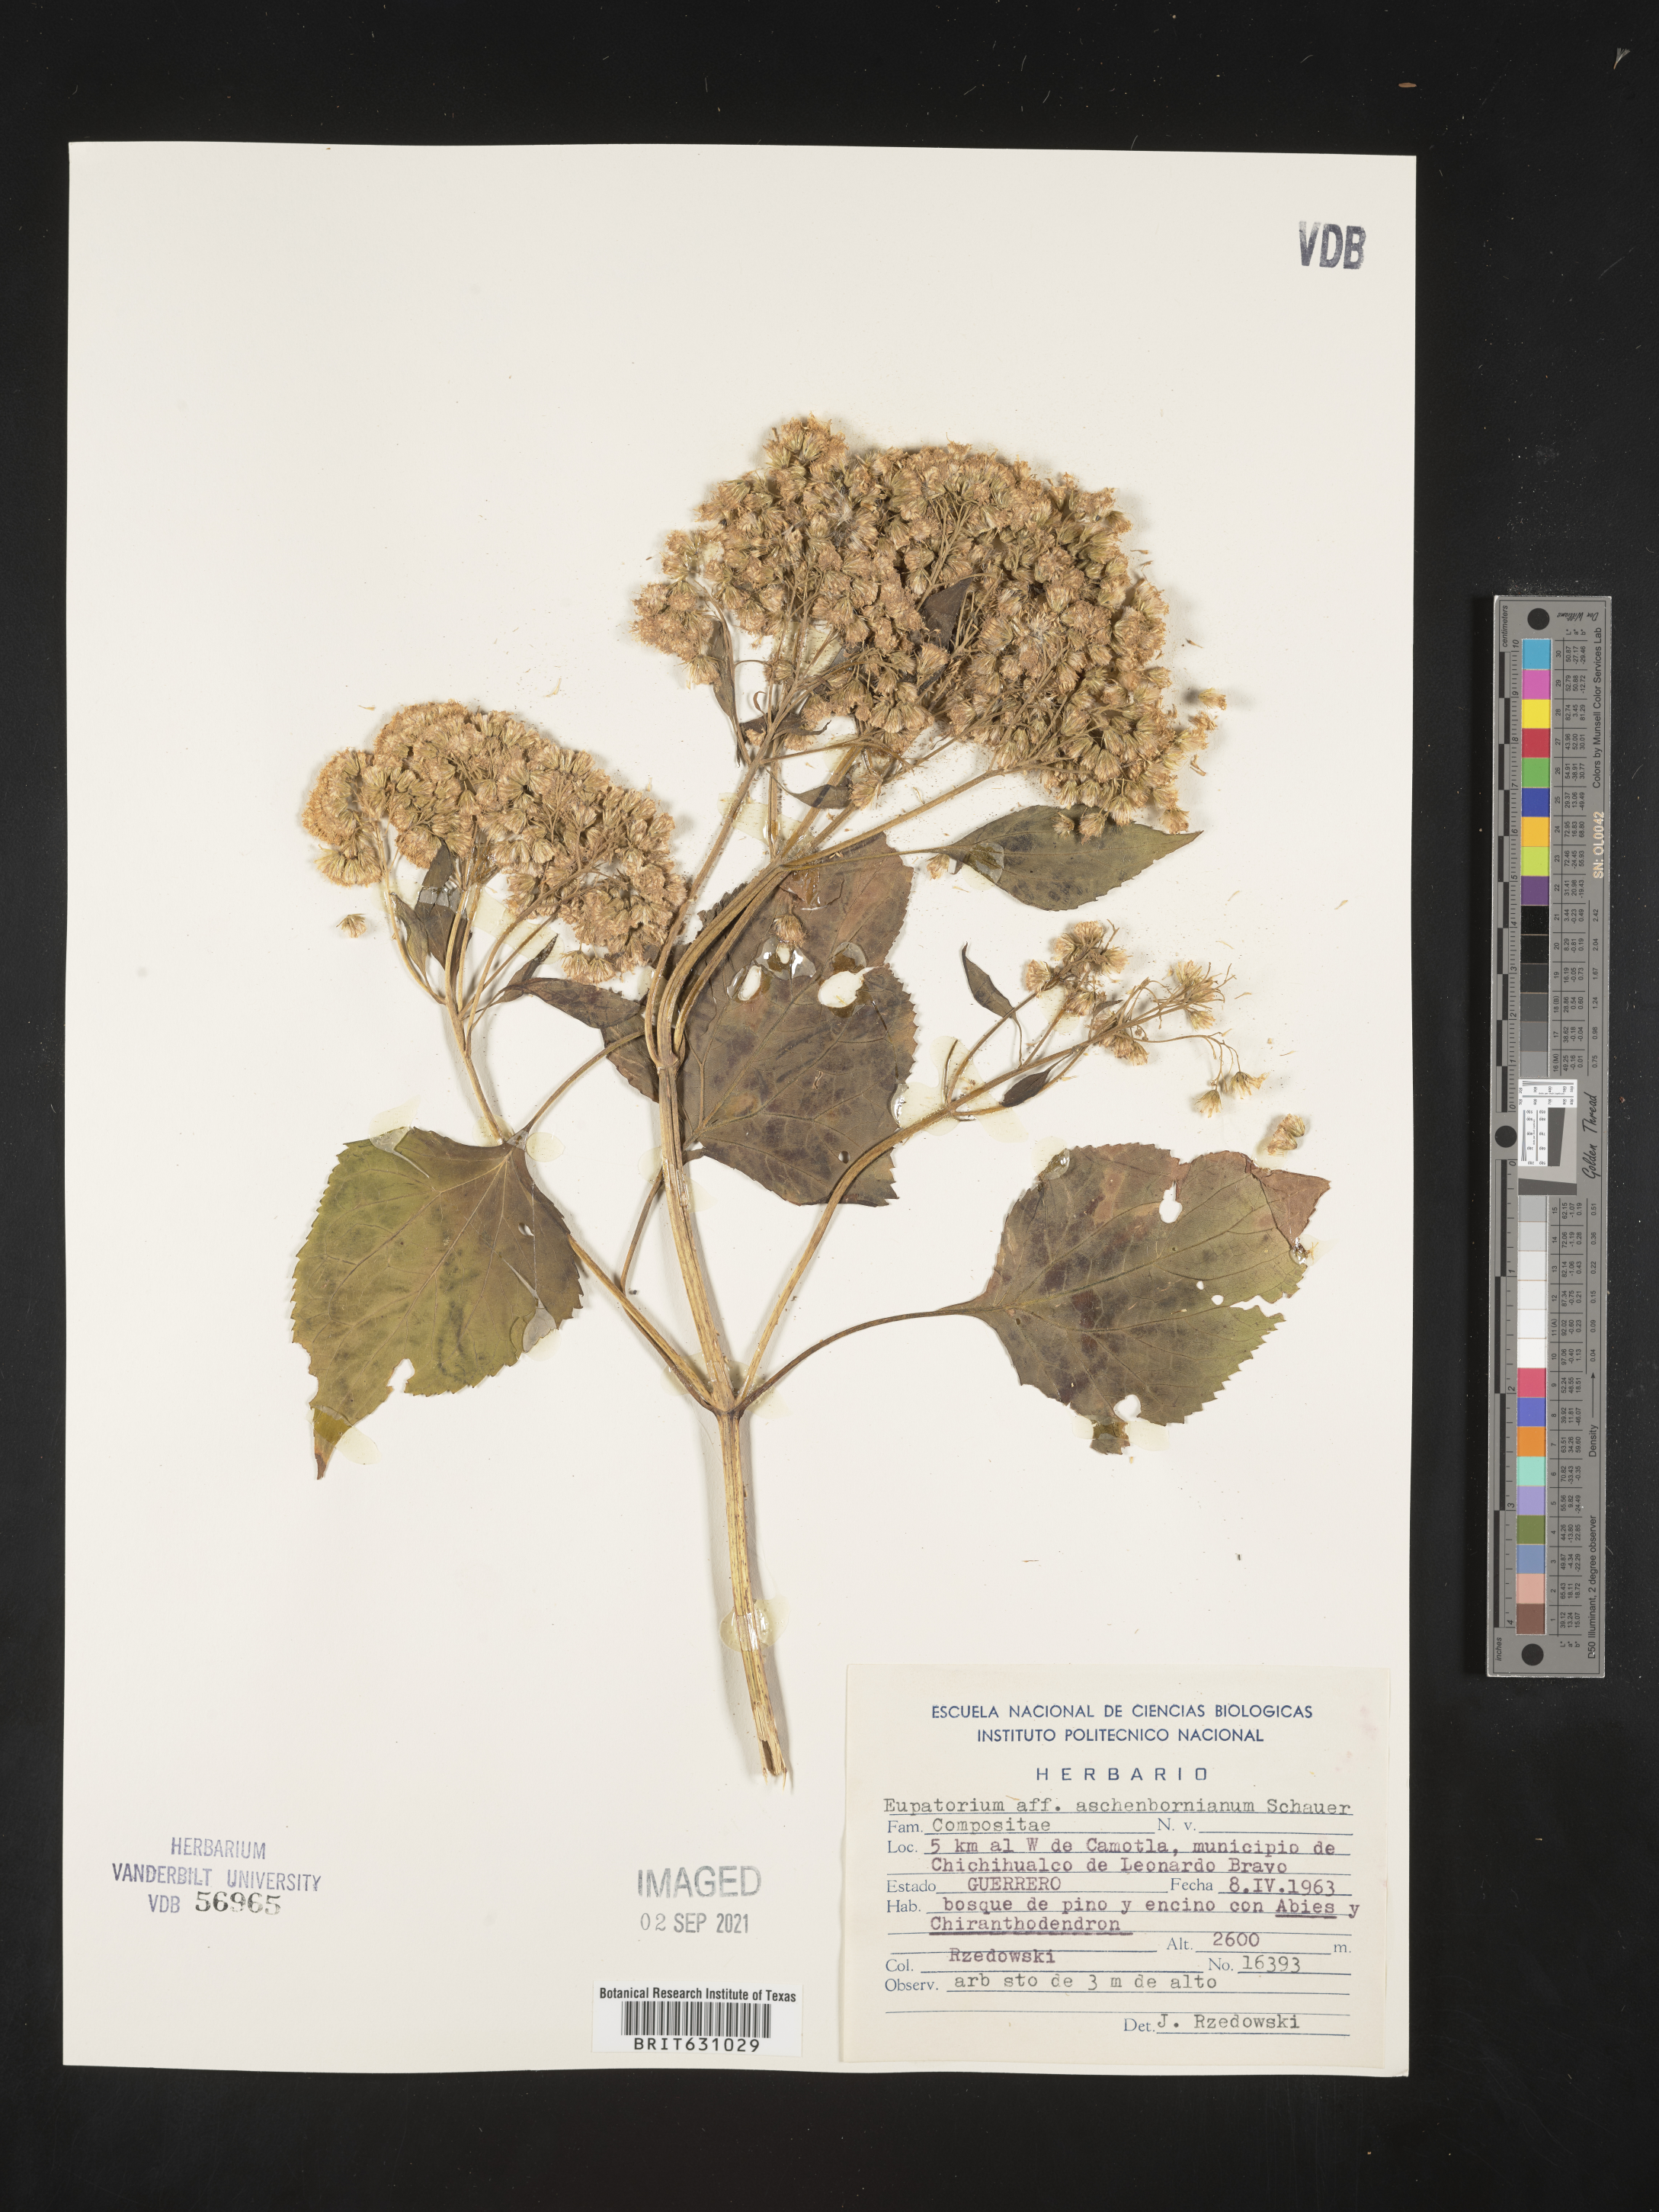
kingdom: Plantae
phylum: Tracheophyta
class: Magnoliopsida
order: Asterales
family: Asteraceae
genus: Eupatorium
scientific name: Eupatorium
